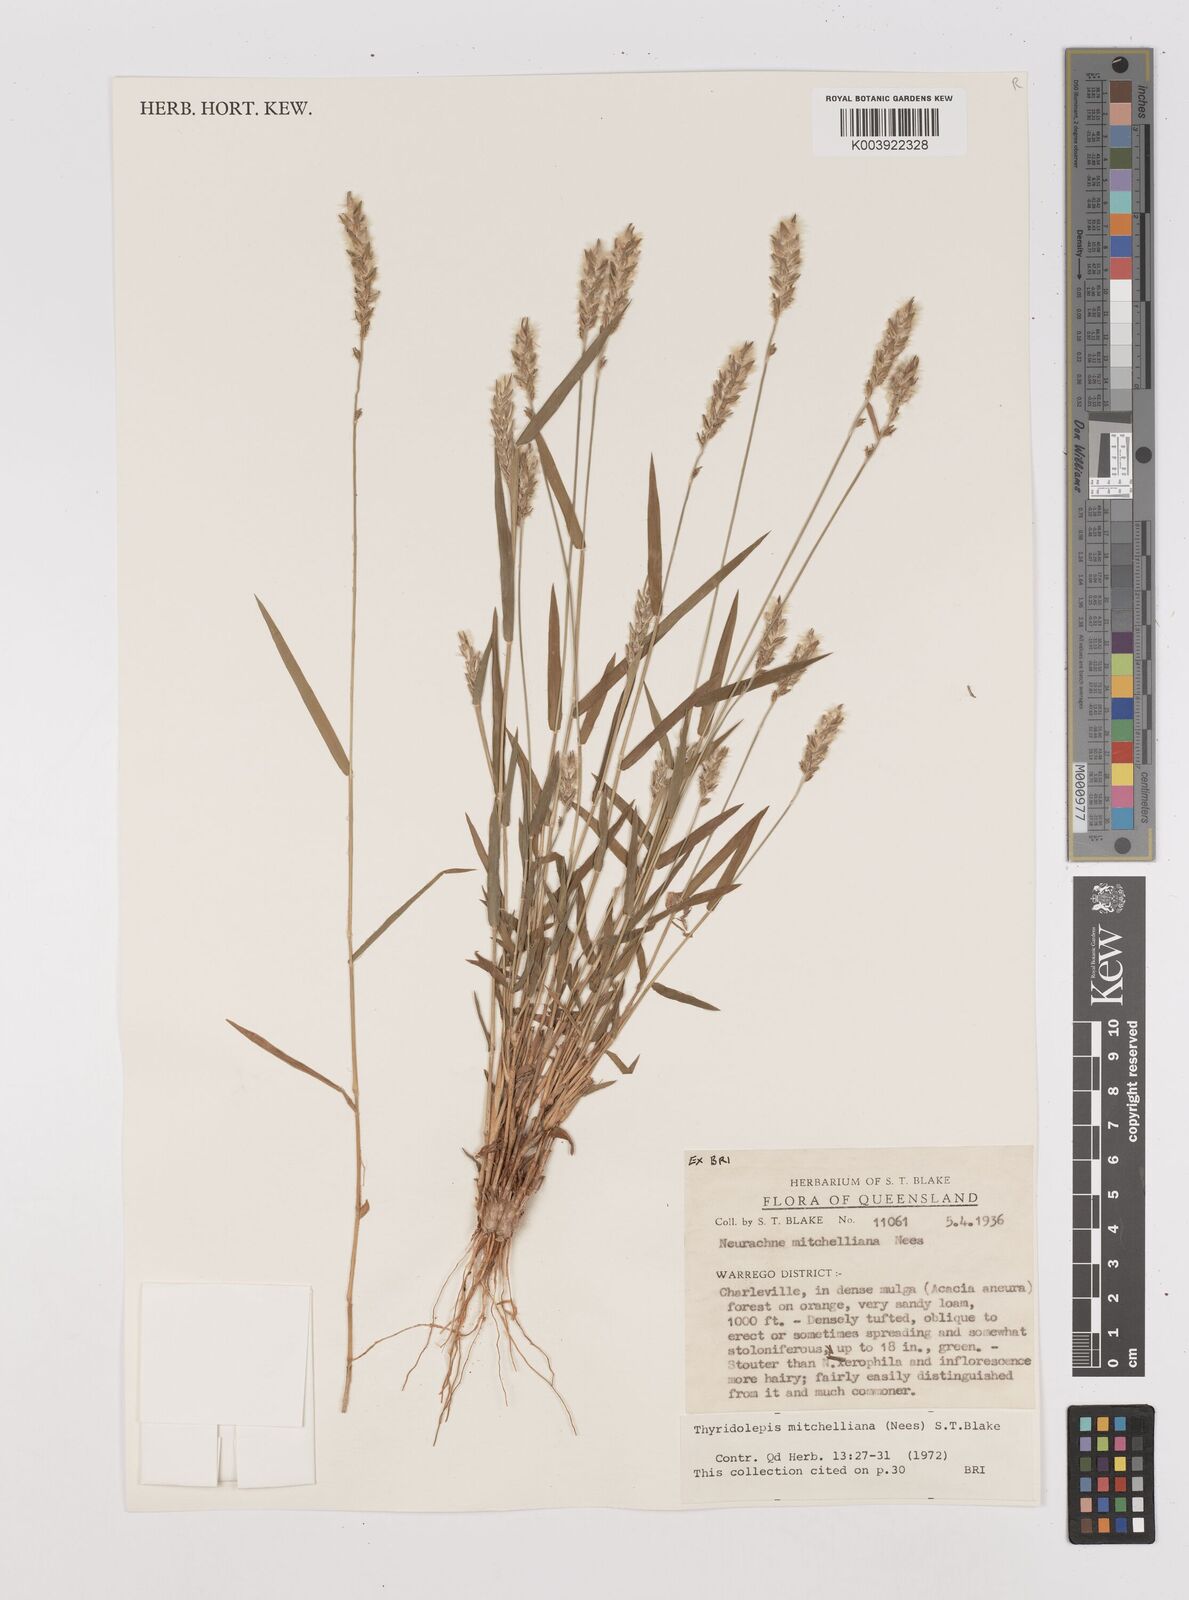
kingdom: Plantae
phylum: Tracheophyta
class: Liliopsida
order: Poales
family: Poaceae
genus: Thyridolepis
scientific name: Thyridolepis mitchelliana
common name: Rock tassel grass
